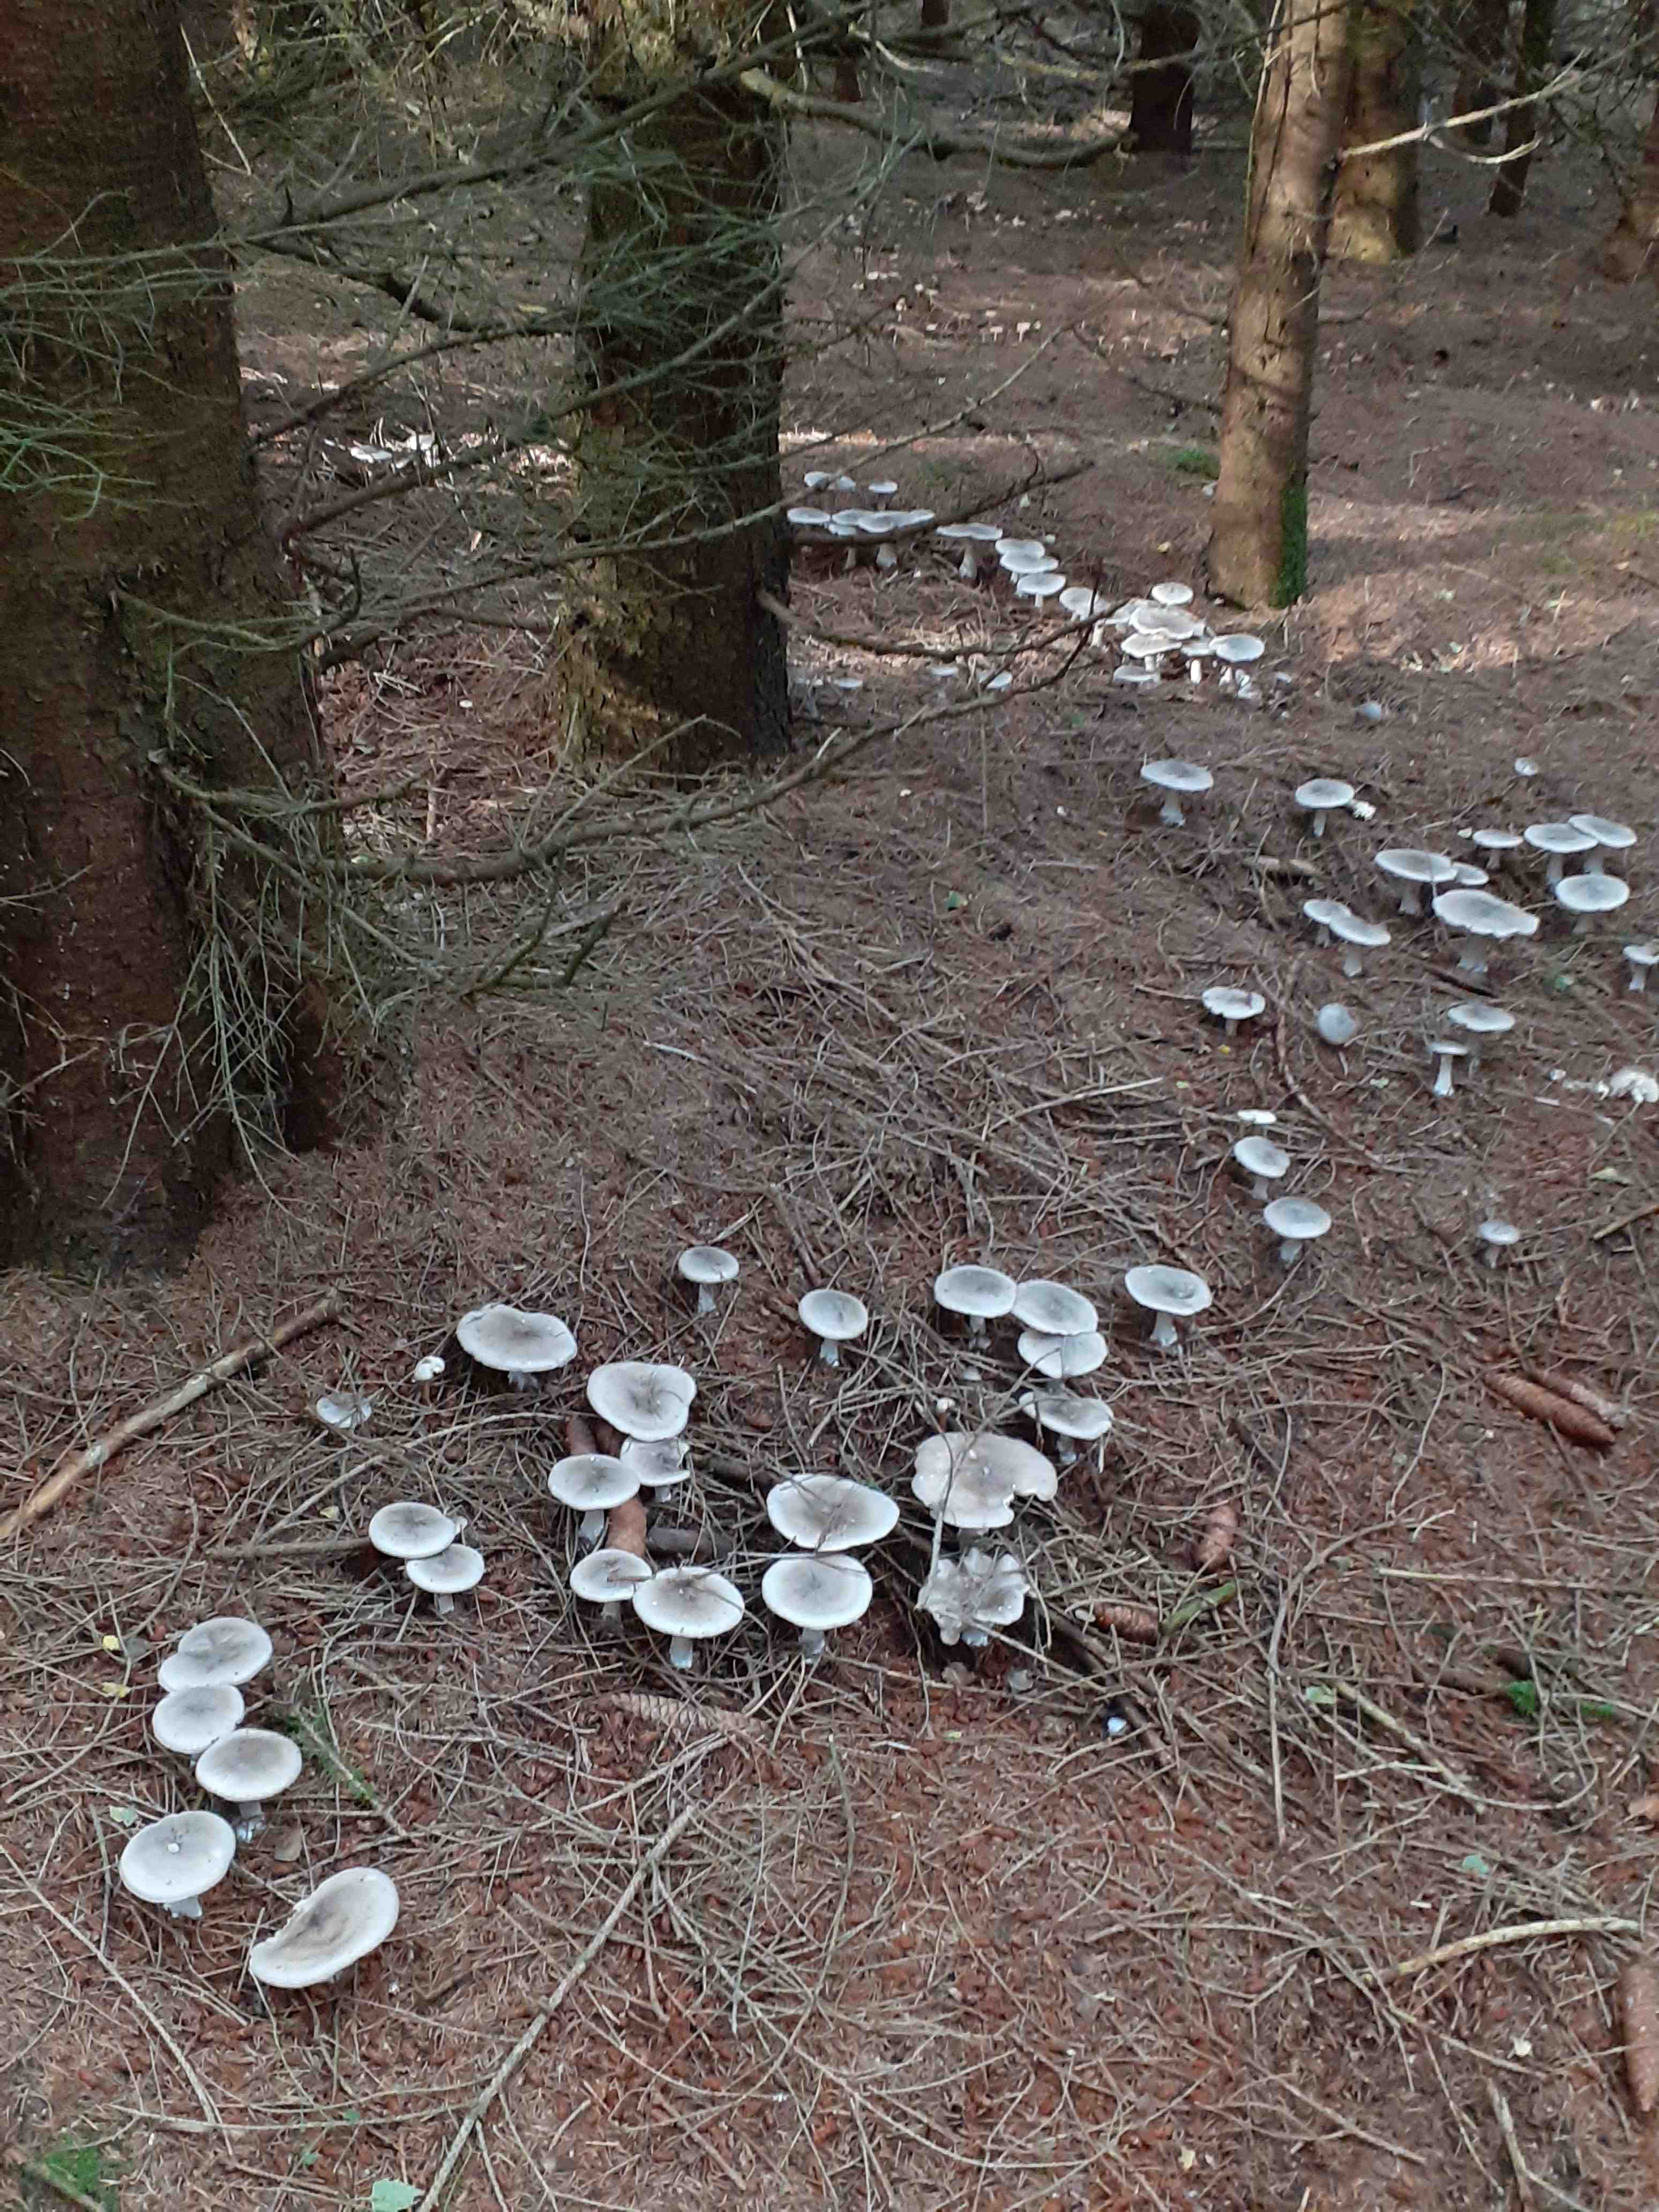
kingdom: Fungi
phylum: Basidiomycota
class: Agaricomycetes
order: Agaricales
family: Tricholomataceae
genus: Clitocybe
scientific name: Clitocybe nebularis
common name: tåge-tragthat
